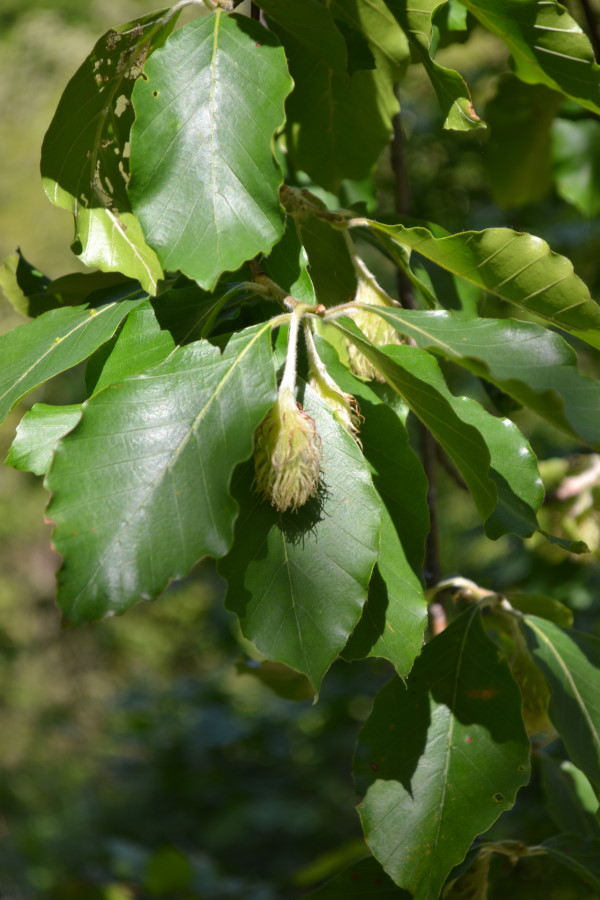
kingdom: Plantae
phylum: Tracheophyta
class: Magnoliopsida
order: Fagales
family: Fagaceae
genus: Fagus
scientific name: Fagus orientalis
